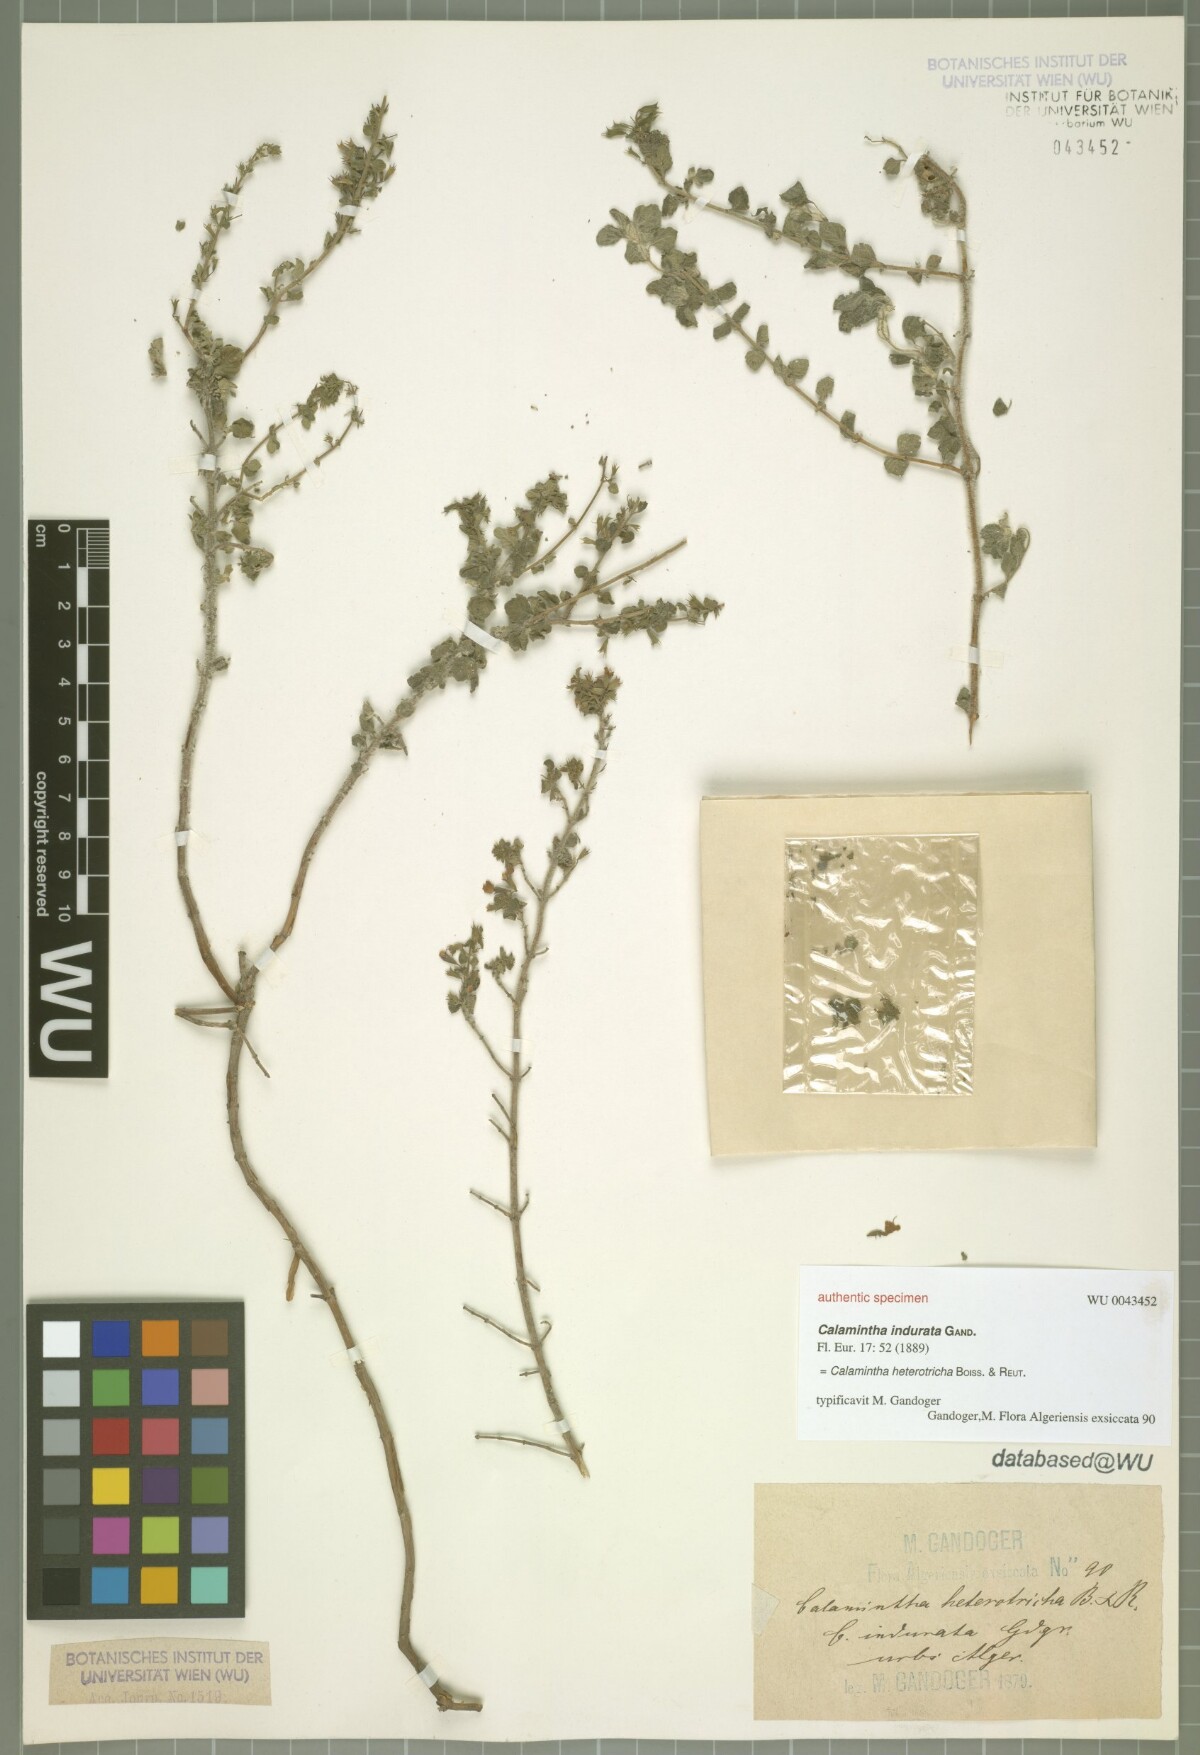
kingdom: Plantae
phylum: Tracheophyta
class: Magnoliopsida
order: Lamiales
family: Lamiaceae
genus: Calamintha
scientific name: Calamintha
